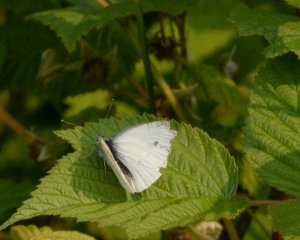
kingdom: Animalia
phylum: Arthropoda
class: Insecta
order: Lepidoptera
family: Pieridae
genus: Pieris
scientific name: Pieris rapae
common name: Cabbage White
